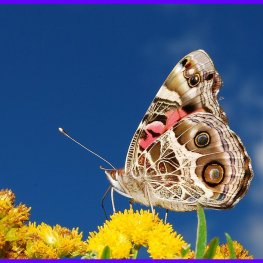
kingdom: Animalia
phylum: Arthropoda
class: Insecta
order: Lepidoptera
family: Nymphalidae
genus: Vanessa
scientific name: Vanessa virginiensis
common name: American Lady
